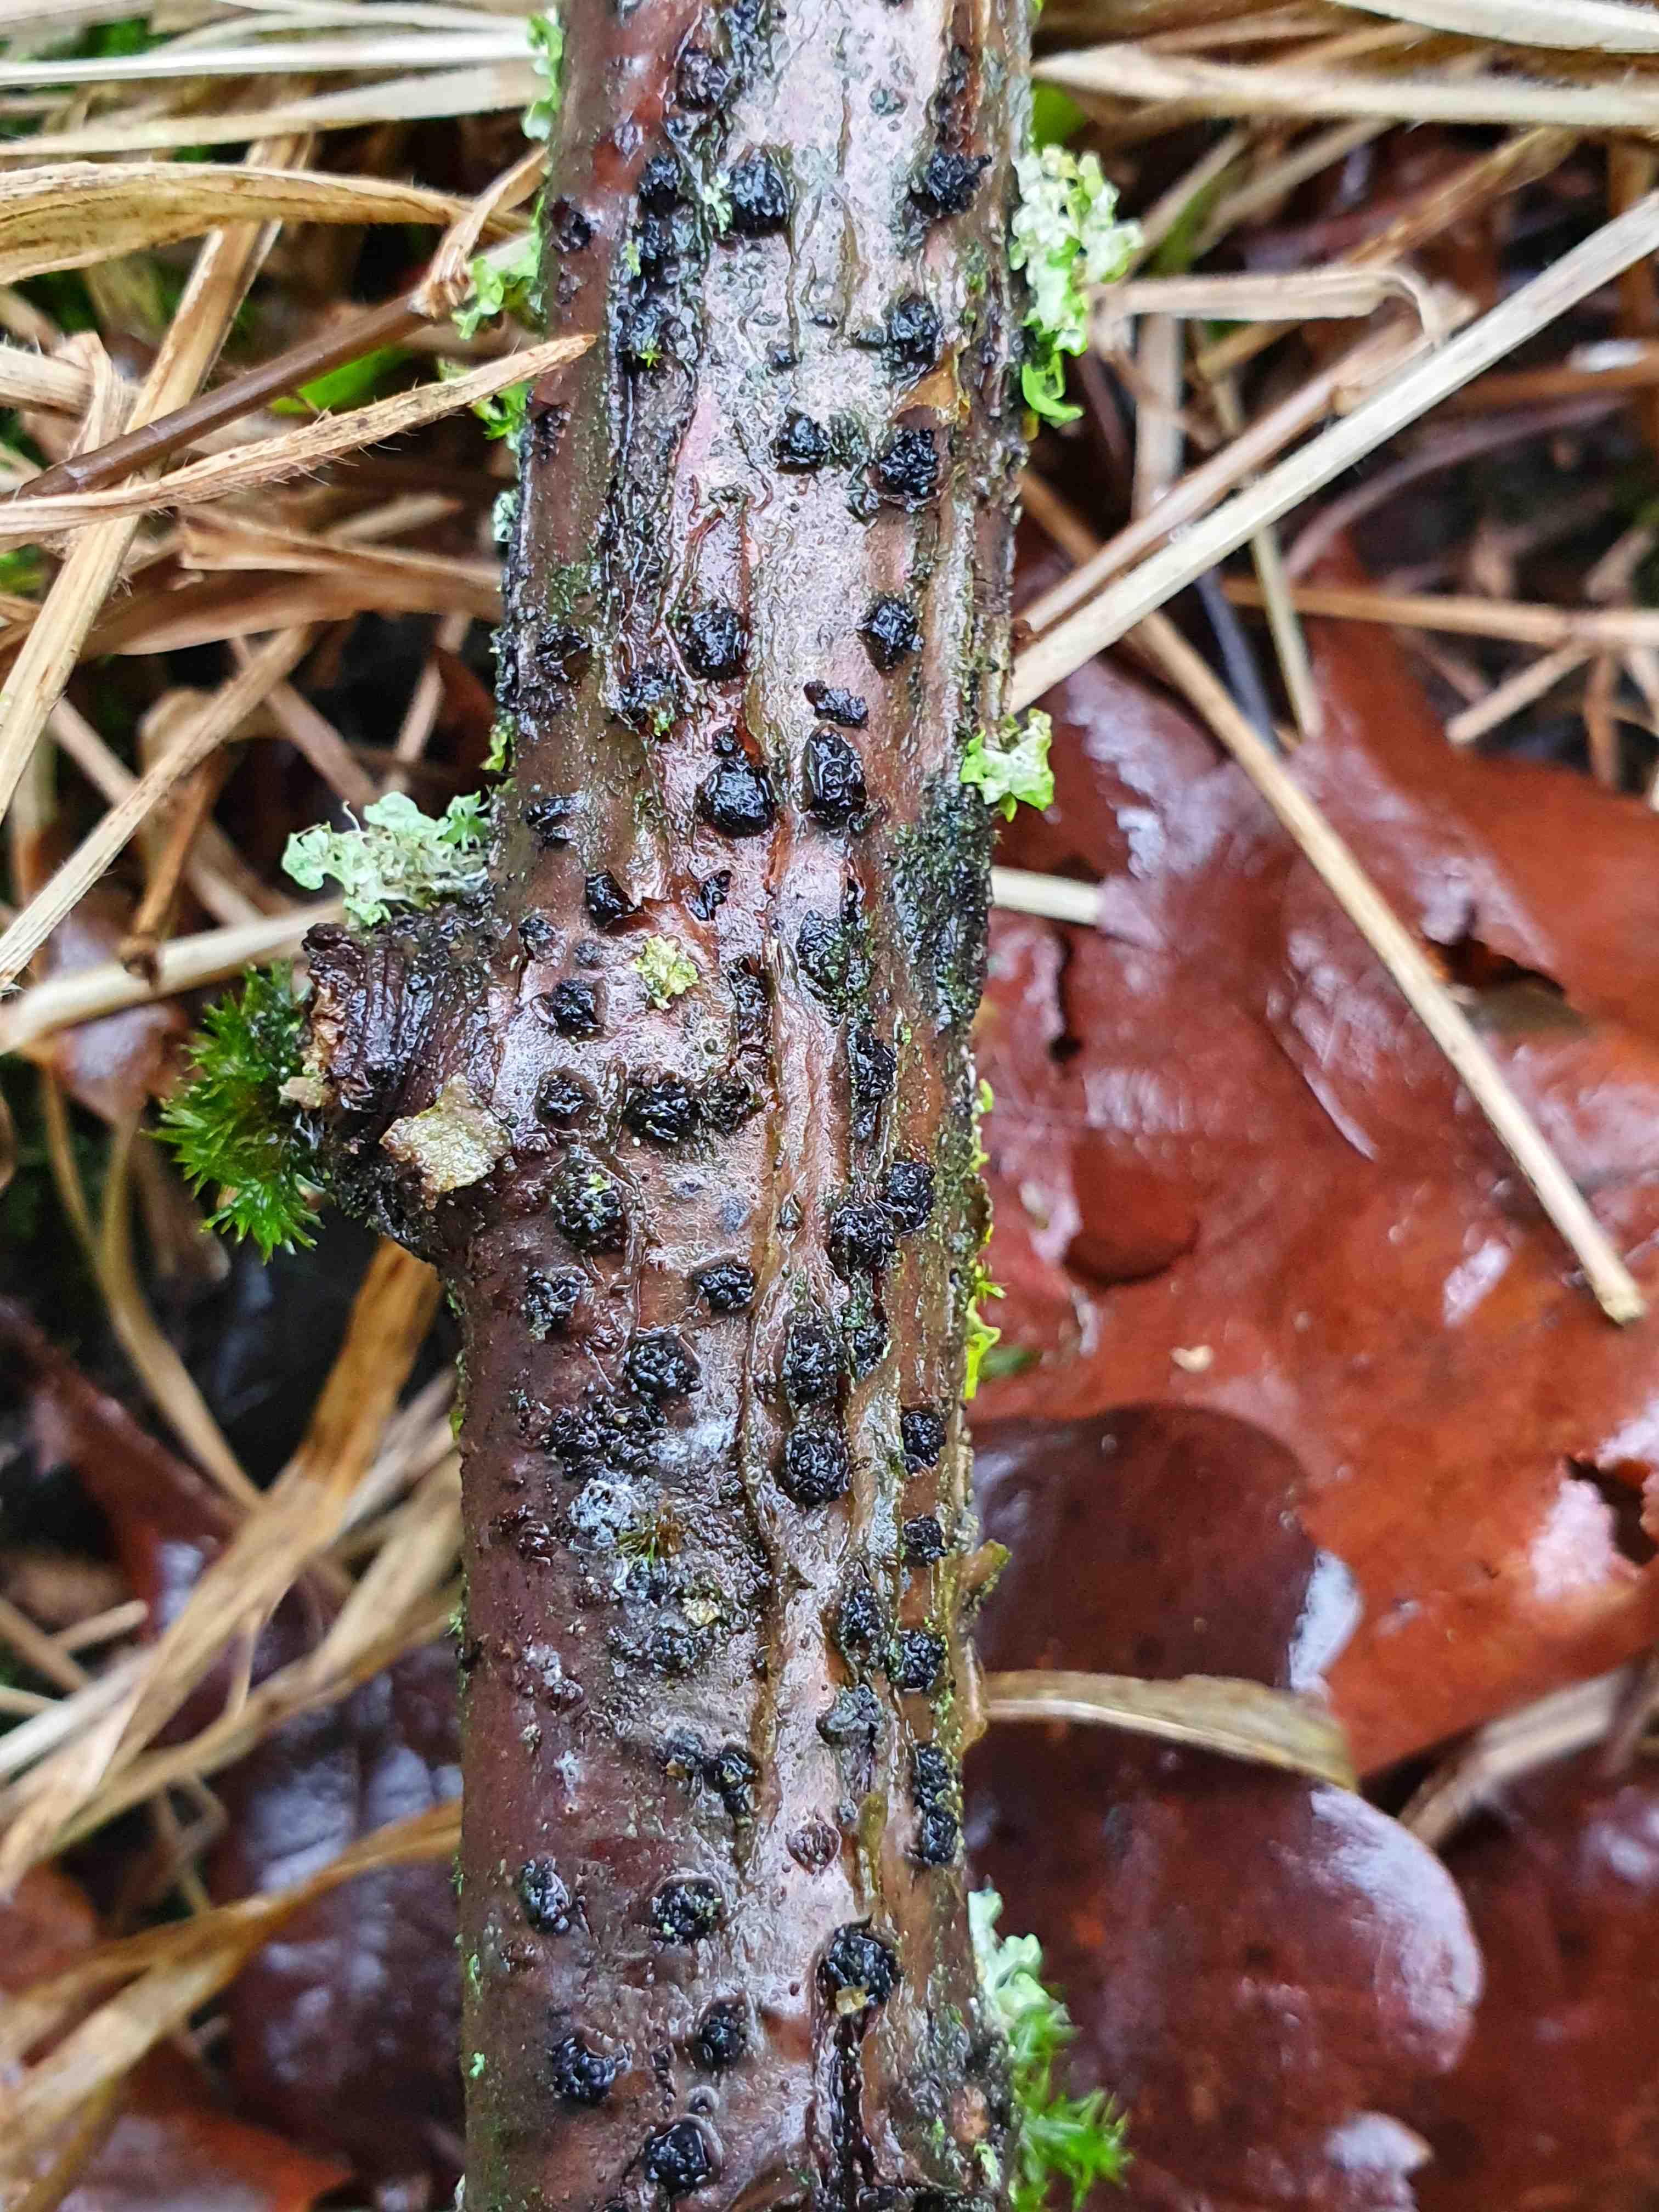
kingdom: Fungi
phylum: Ascomycota
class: Sordariomycetes
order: Xylariales
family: Diatrypaceae
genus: Diatrypella
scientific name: Diatrypella quercina
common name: ege-kulskorpe
